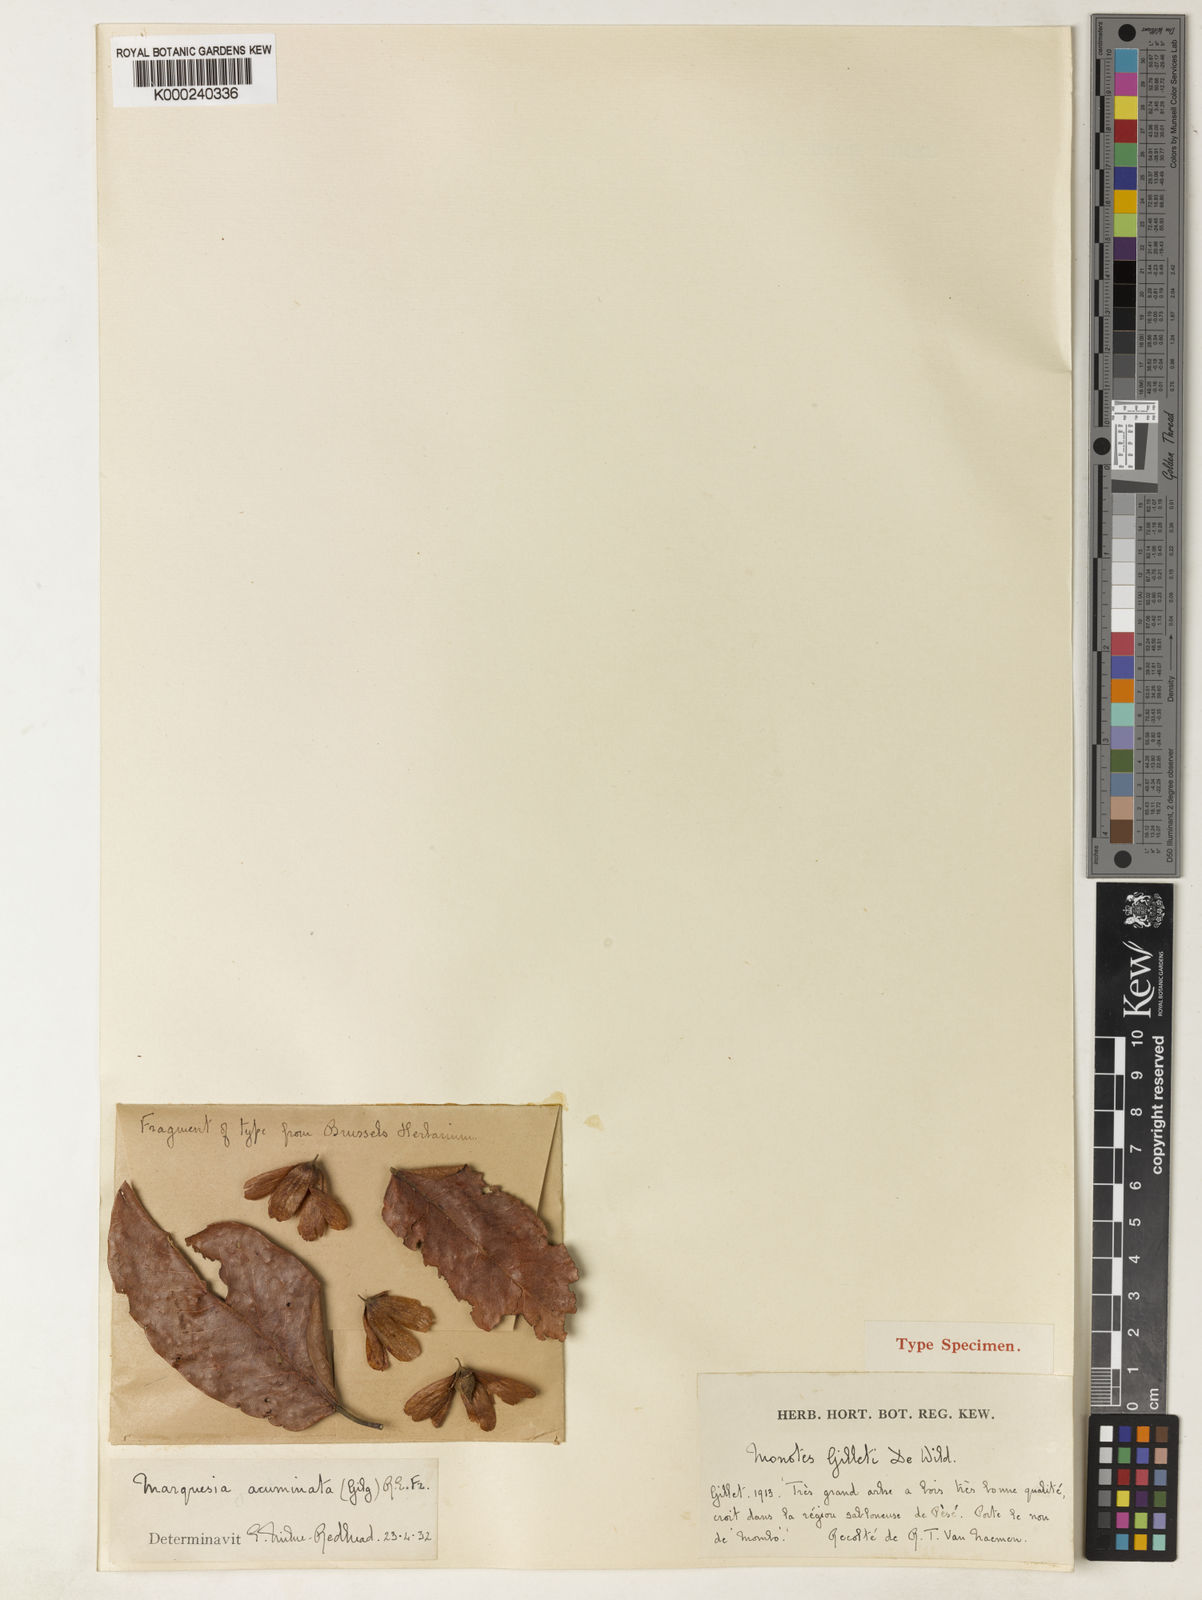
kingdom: Plantae
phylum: Tracheophyta
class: Magnoliopsida
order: Malvales
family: Dipterocarpaceae
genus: Marquesia
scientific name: Marquesia acuminata
